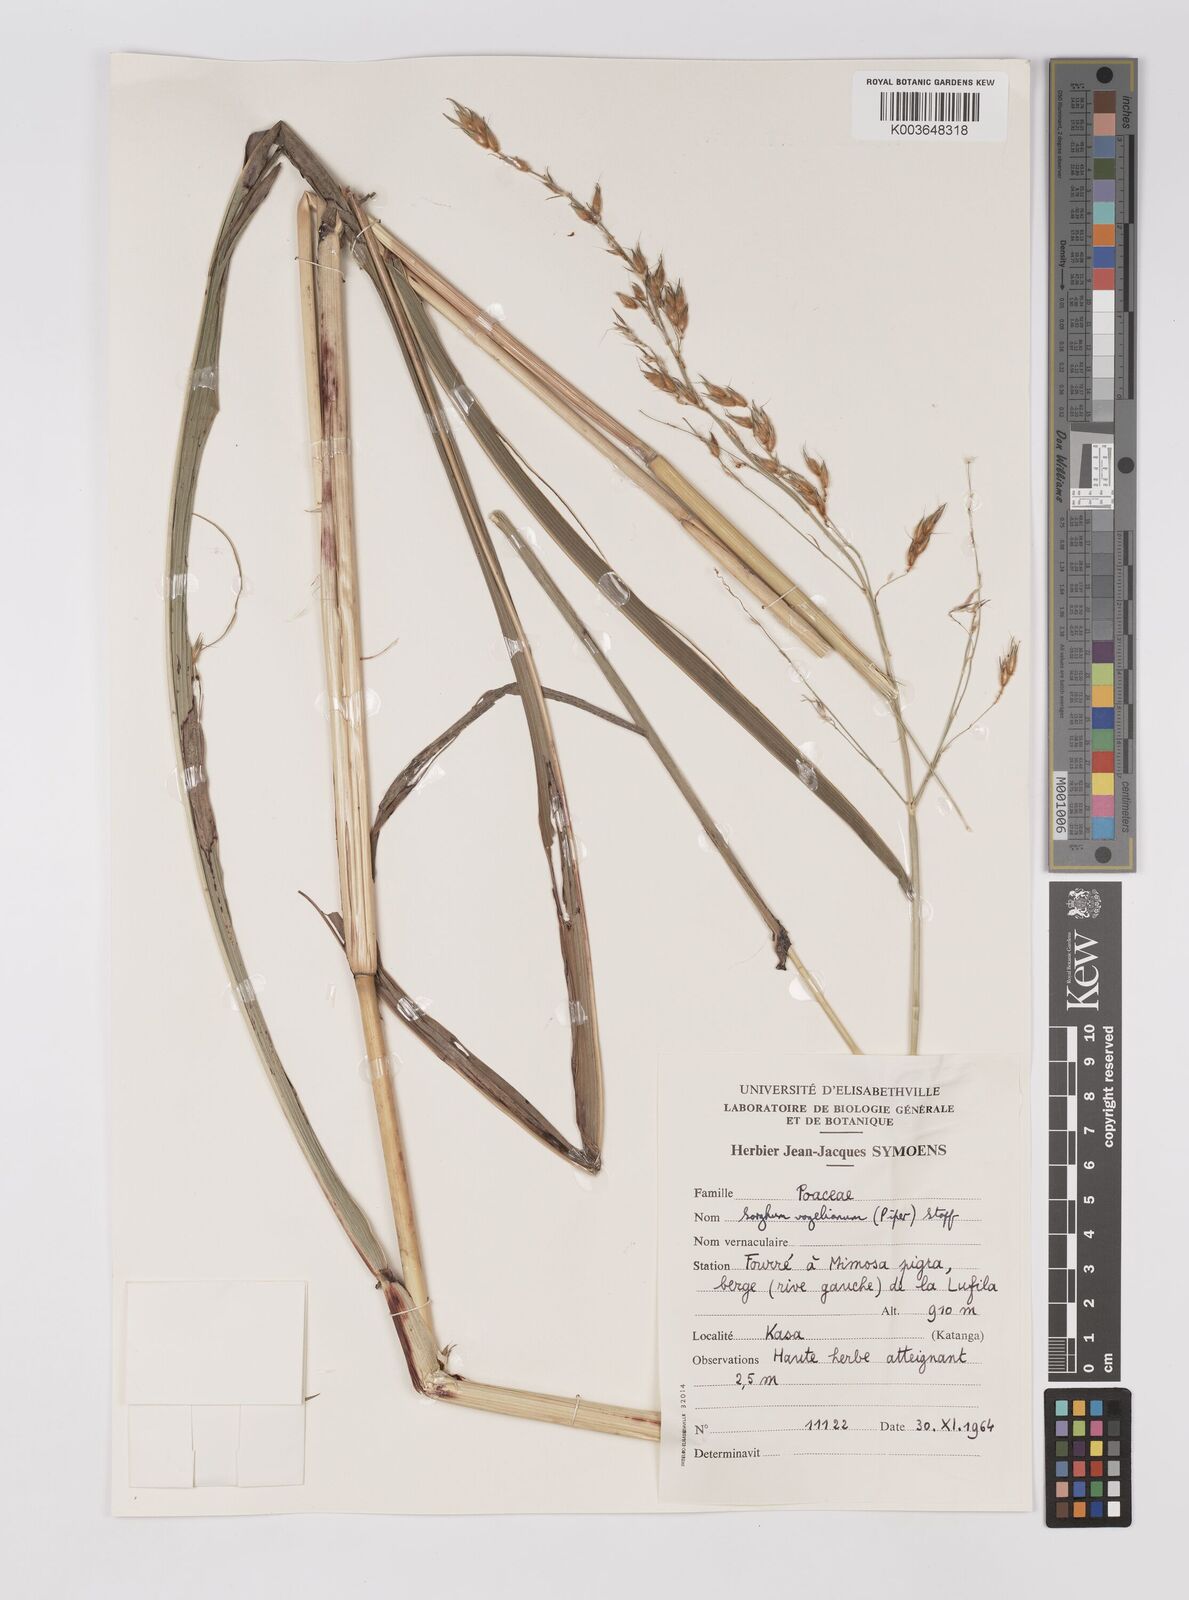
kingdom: Plantae
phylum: Tracheophyta
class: Liliopsida
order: Poales
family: Poaceae
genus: Sorghum
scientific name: Sorghum arundinaceum
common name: Sorghum
